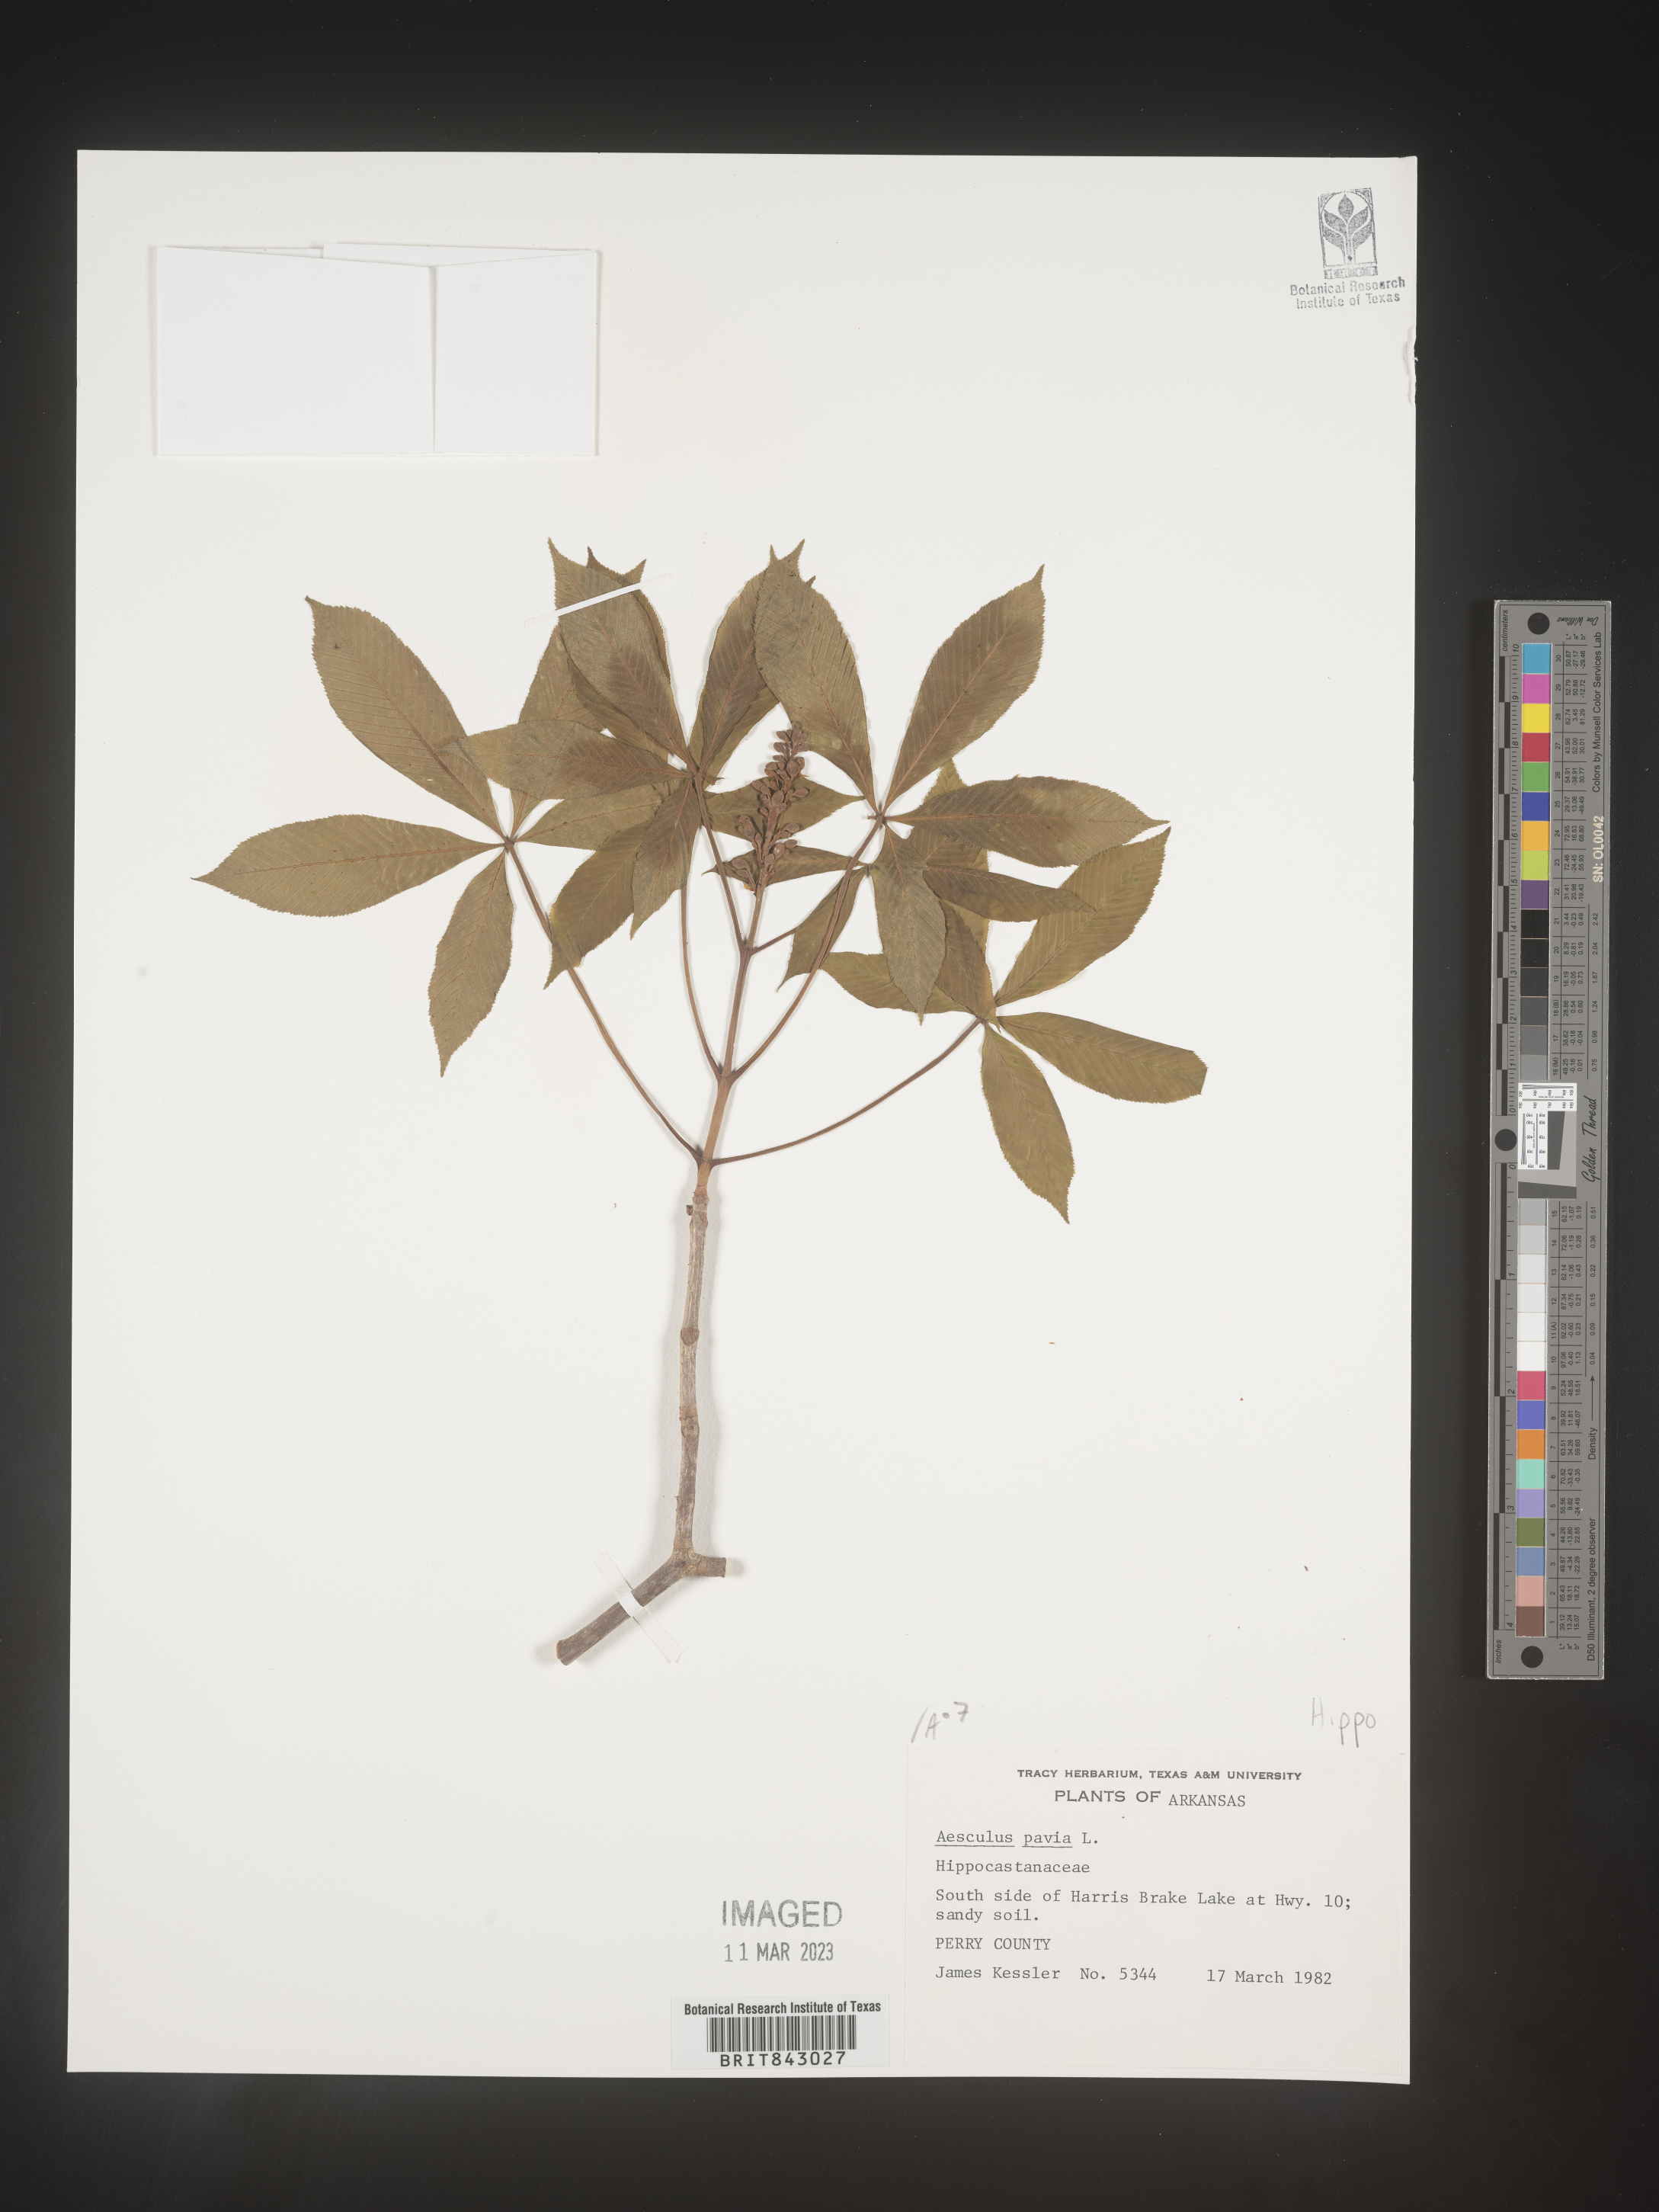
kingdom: Plantae
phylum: Tracheophyta
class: Magnoliopsida
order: Sapindales
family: Sapindaceae
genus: Aesculus
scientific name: Aesculus pavia
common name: Red buckeye
